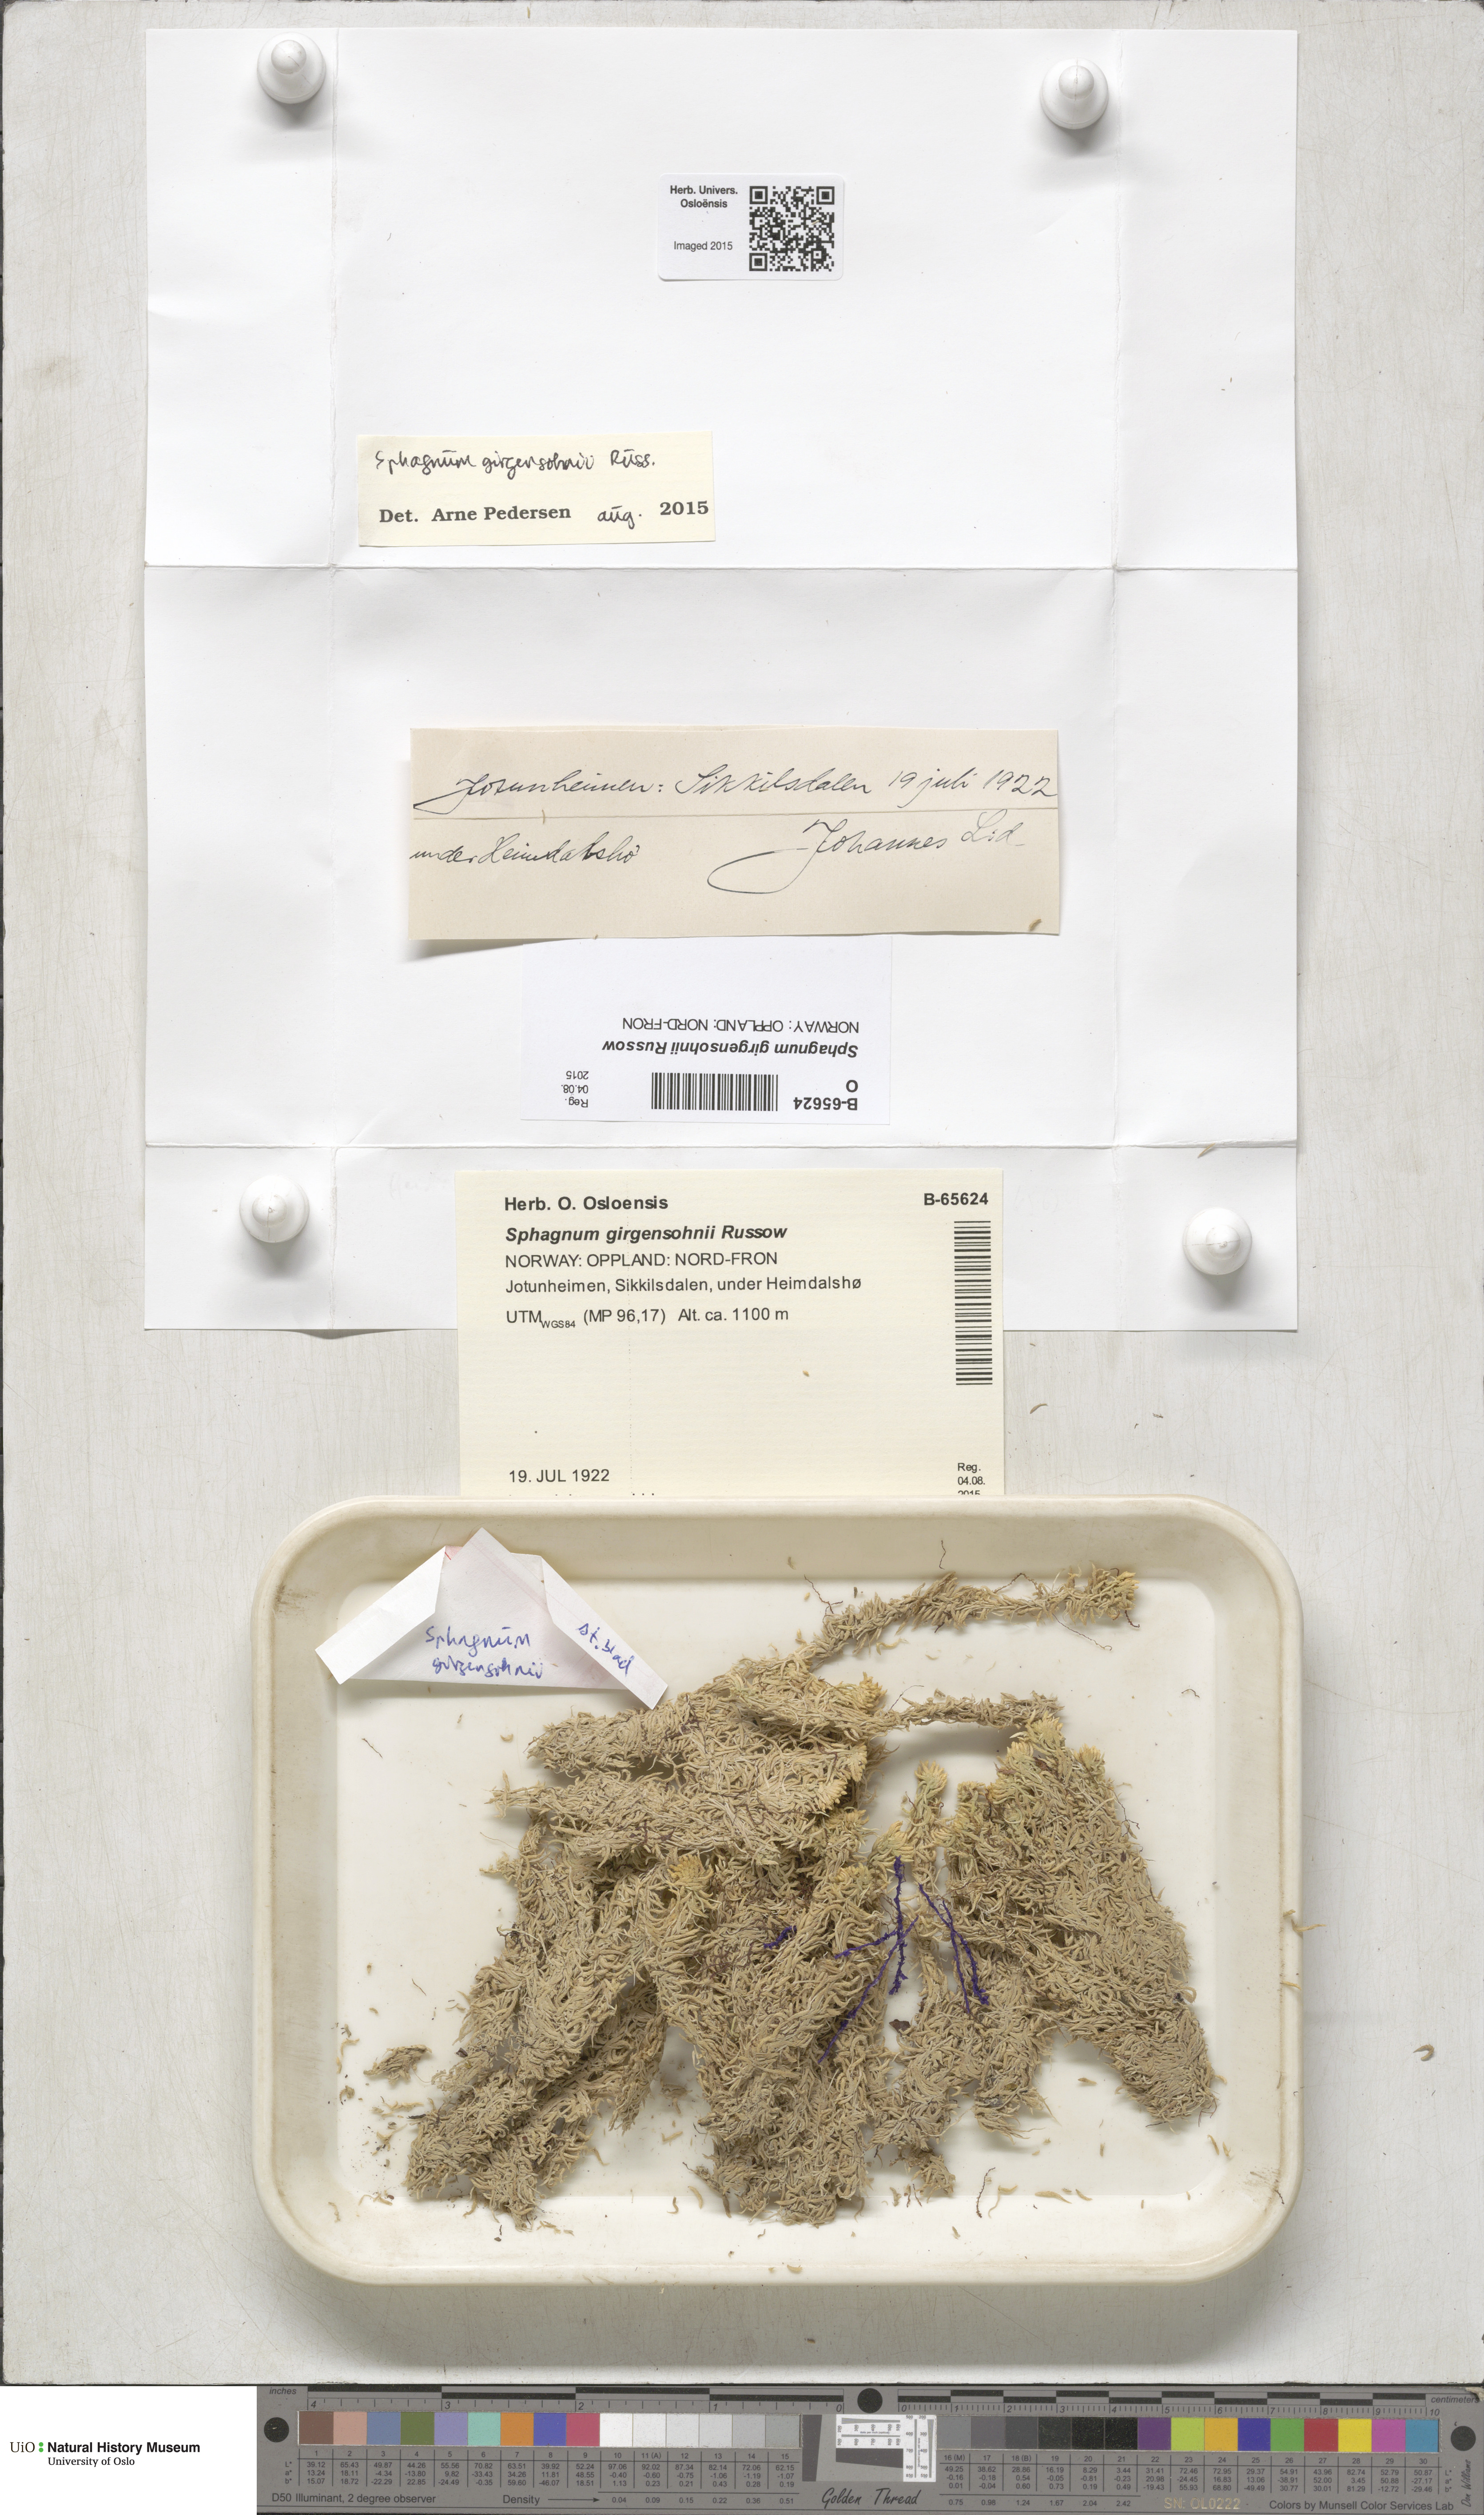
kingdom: Plantae
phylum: Bryophyta
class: Sphagnopsida
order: Sphagnales
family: Sphagnaceae
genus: Sphagnum
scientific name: Sphagnum girgensohnii
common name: Girgensohn's peat moss
